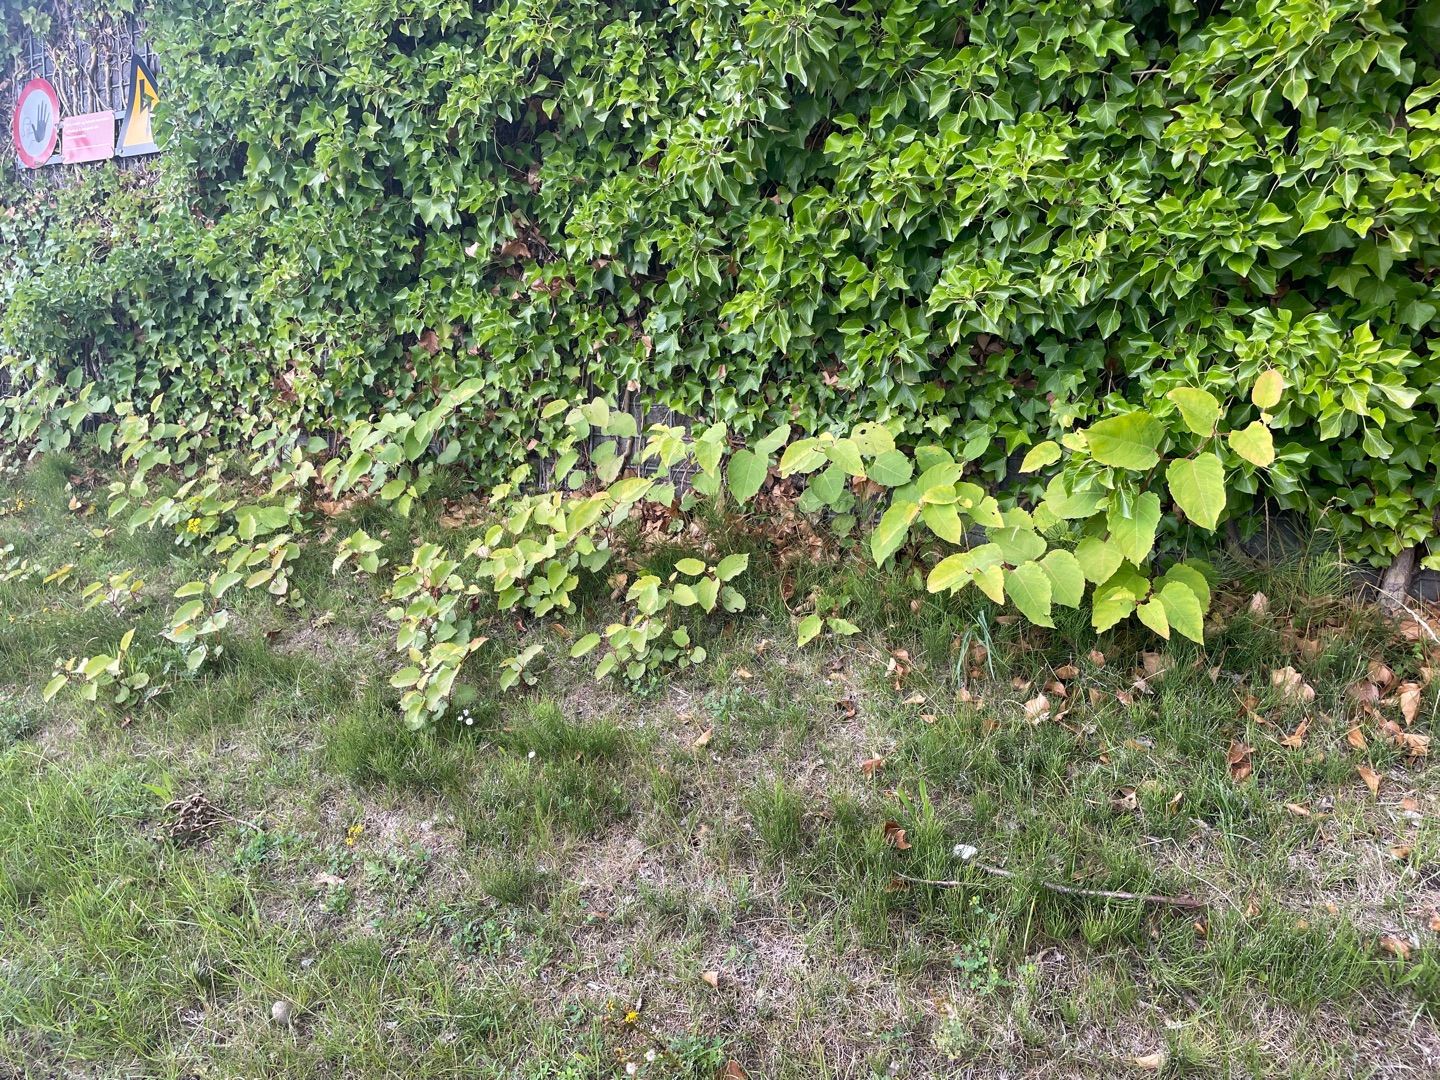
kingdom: Plantae
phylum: Tracheophyta
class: Magnoliopsida
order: Caryophyllales
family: Polygonaceae
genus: Reynoutria
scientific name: Reynoutria bohemica
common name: Hybrid-pileurt
